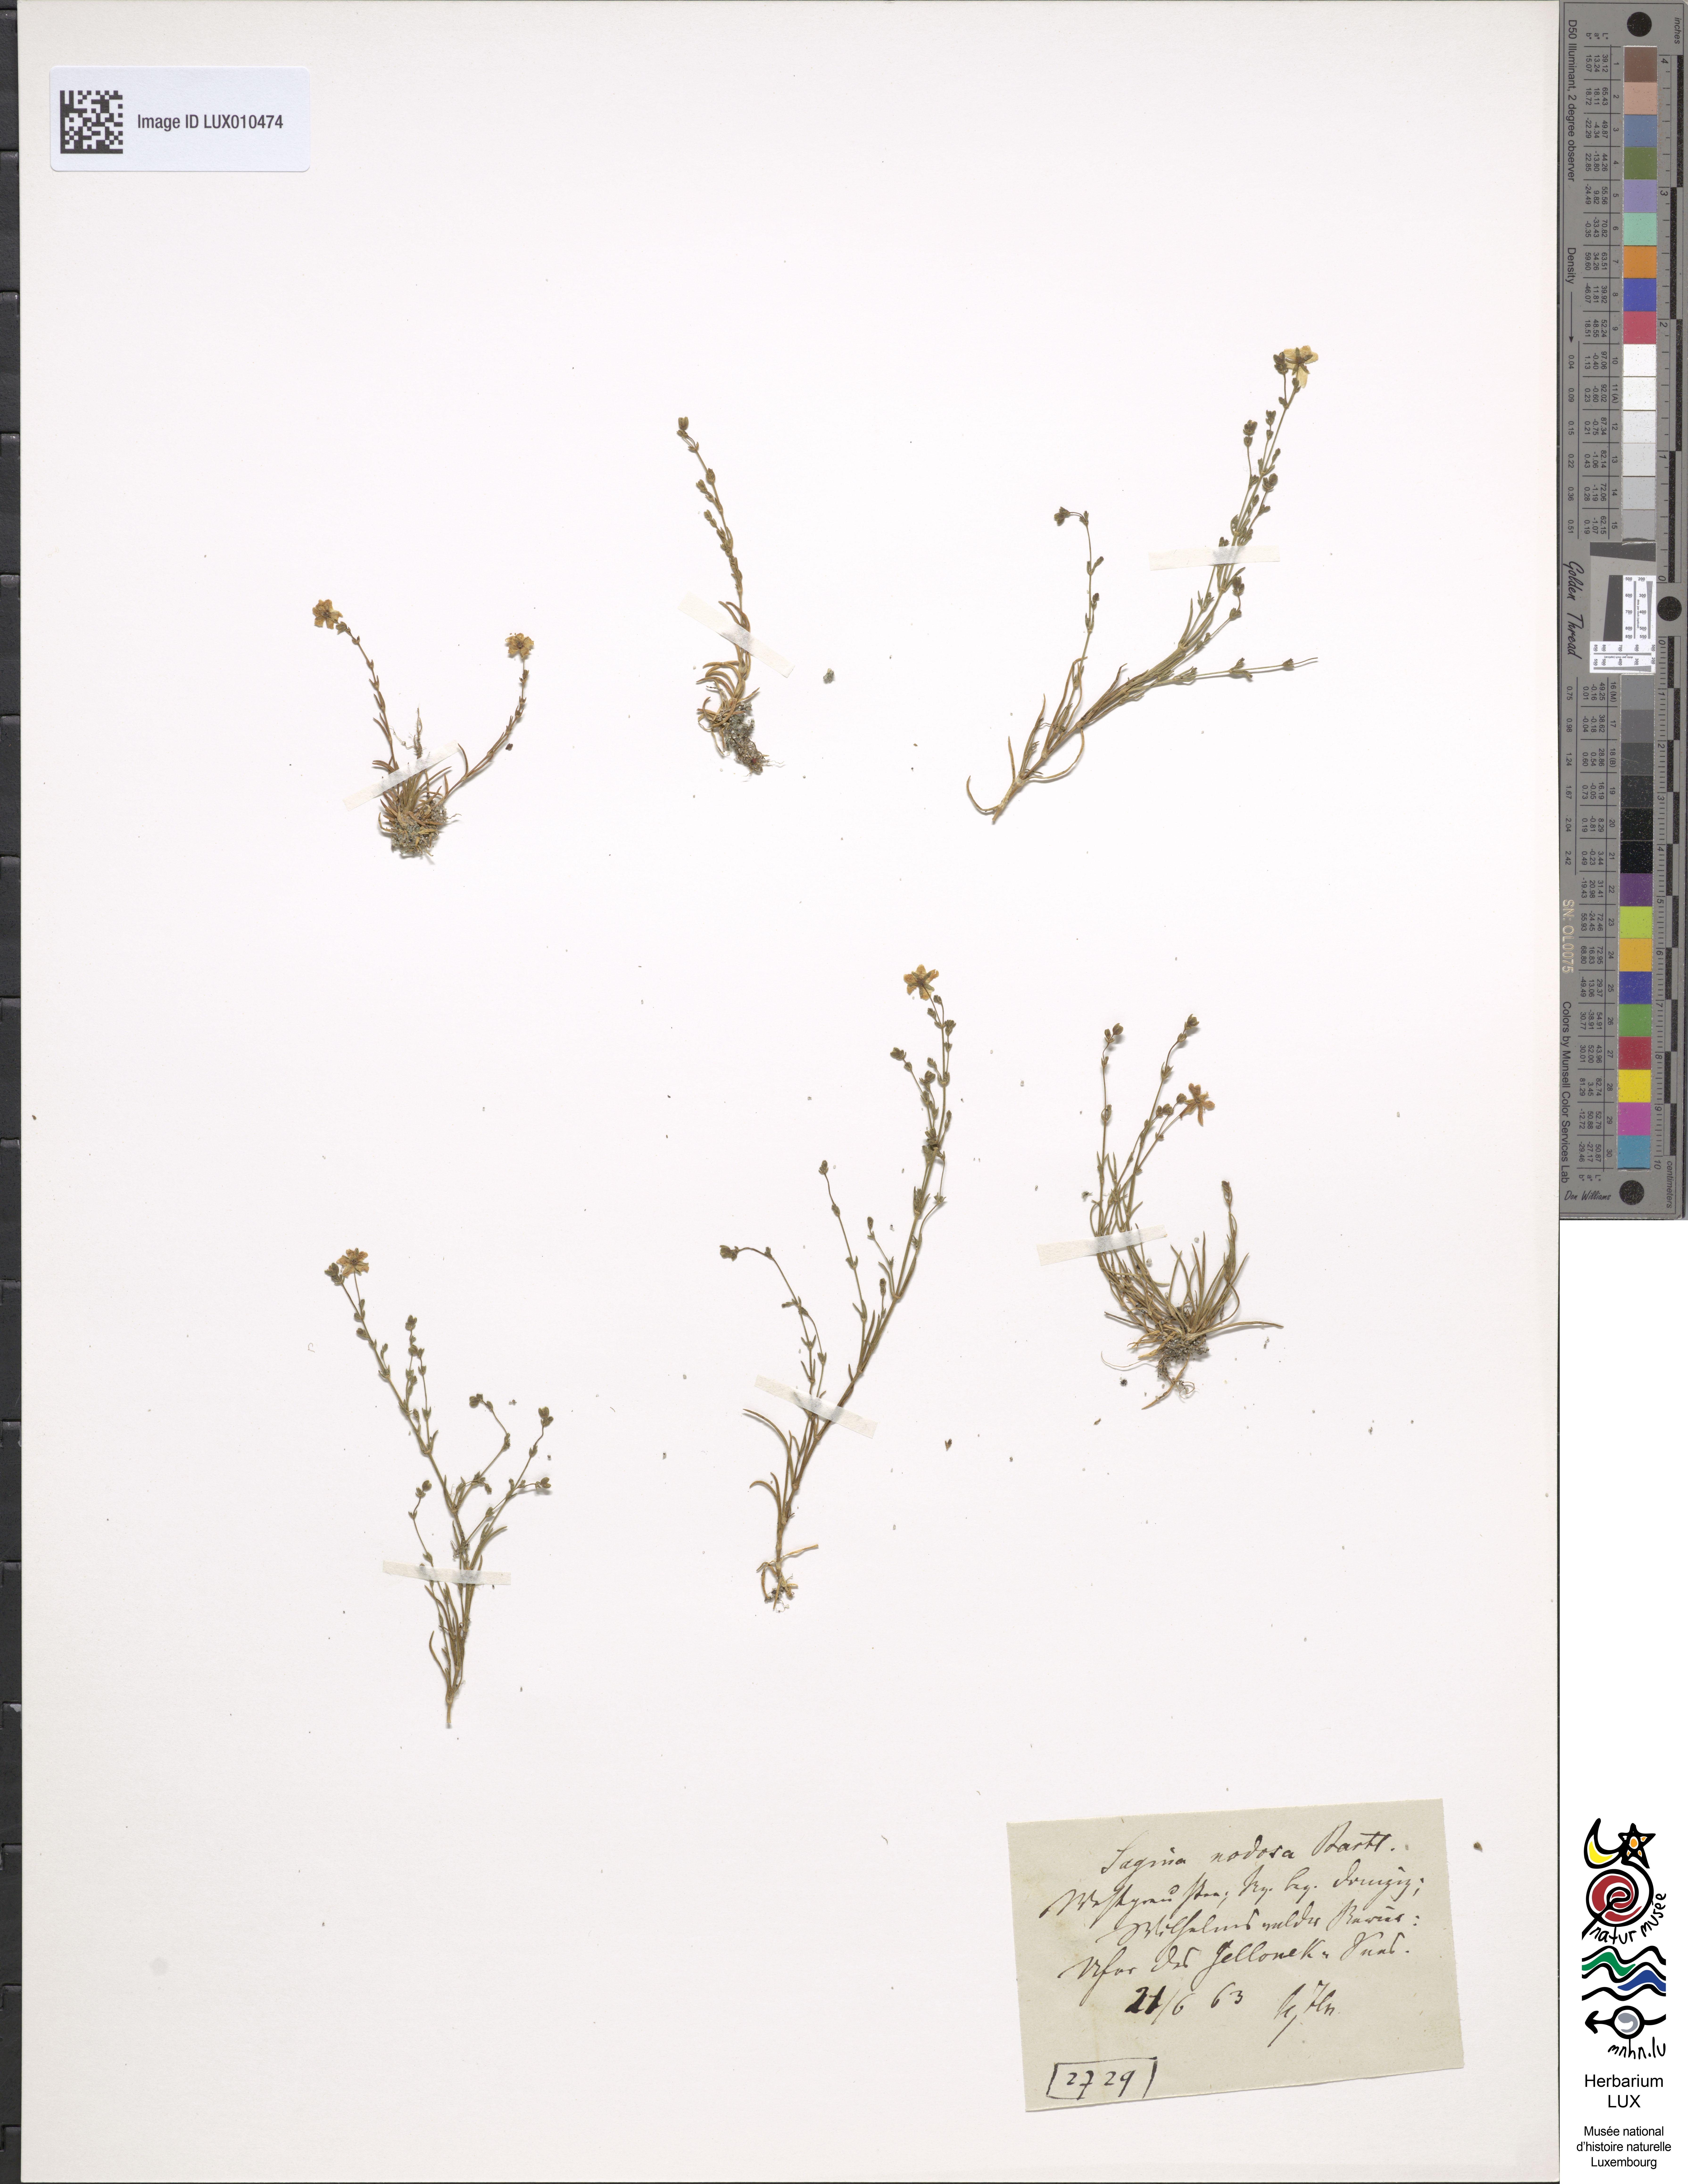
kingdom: Plantae
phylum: Tracheophyta
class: Magnoliopsida
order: Caryophyllales
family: Caryophyllaceae
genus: Sagina
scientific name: Sagina nodosa
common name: Knotted pearlwort
